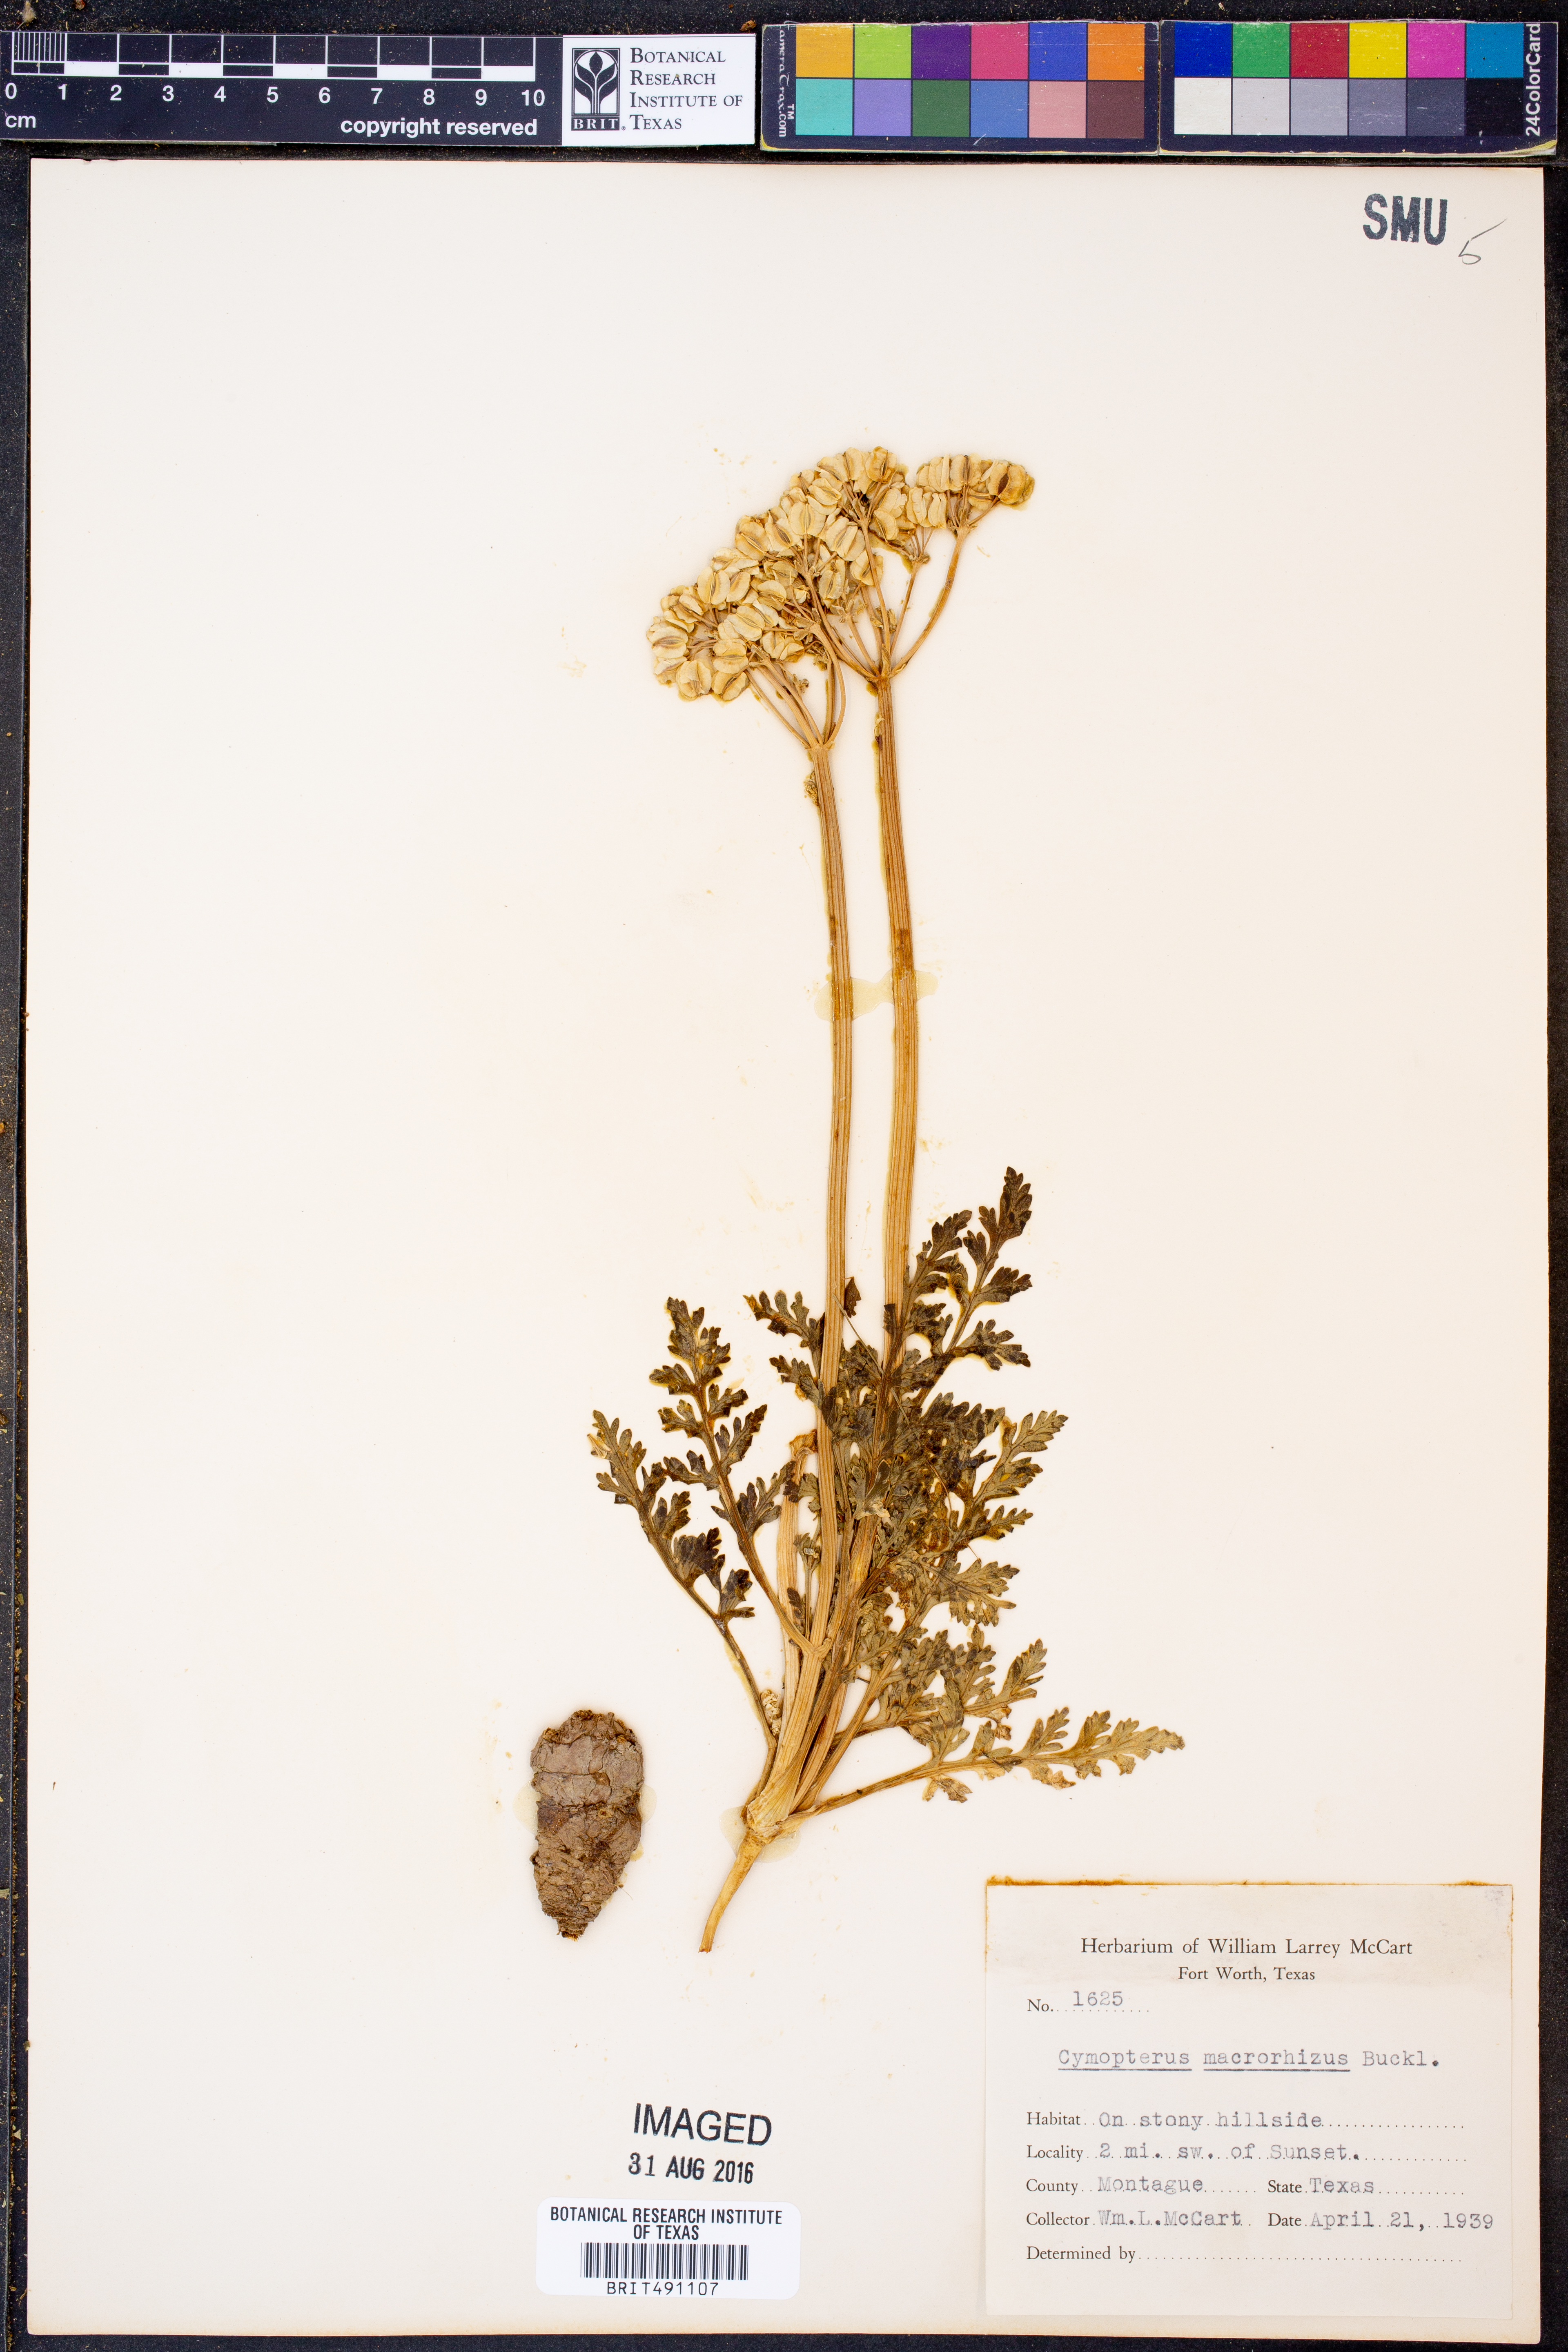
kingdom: Plantae
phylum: Tracheophyta
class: Magnoliopsida
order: Apiales
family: Apiaceae
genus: Vesper
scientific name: Vesper macrorhizus
